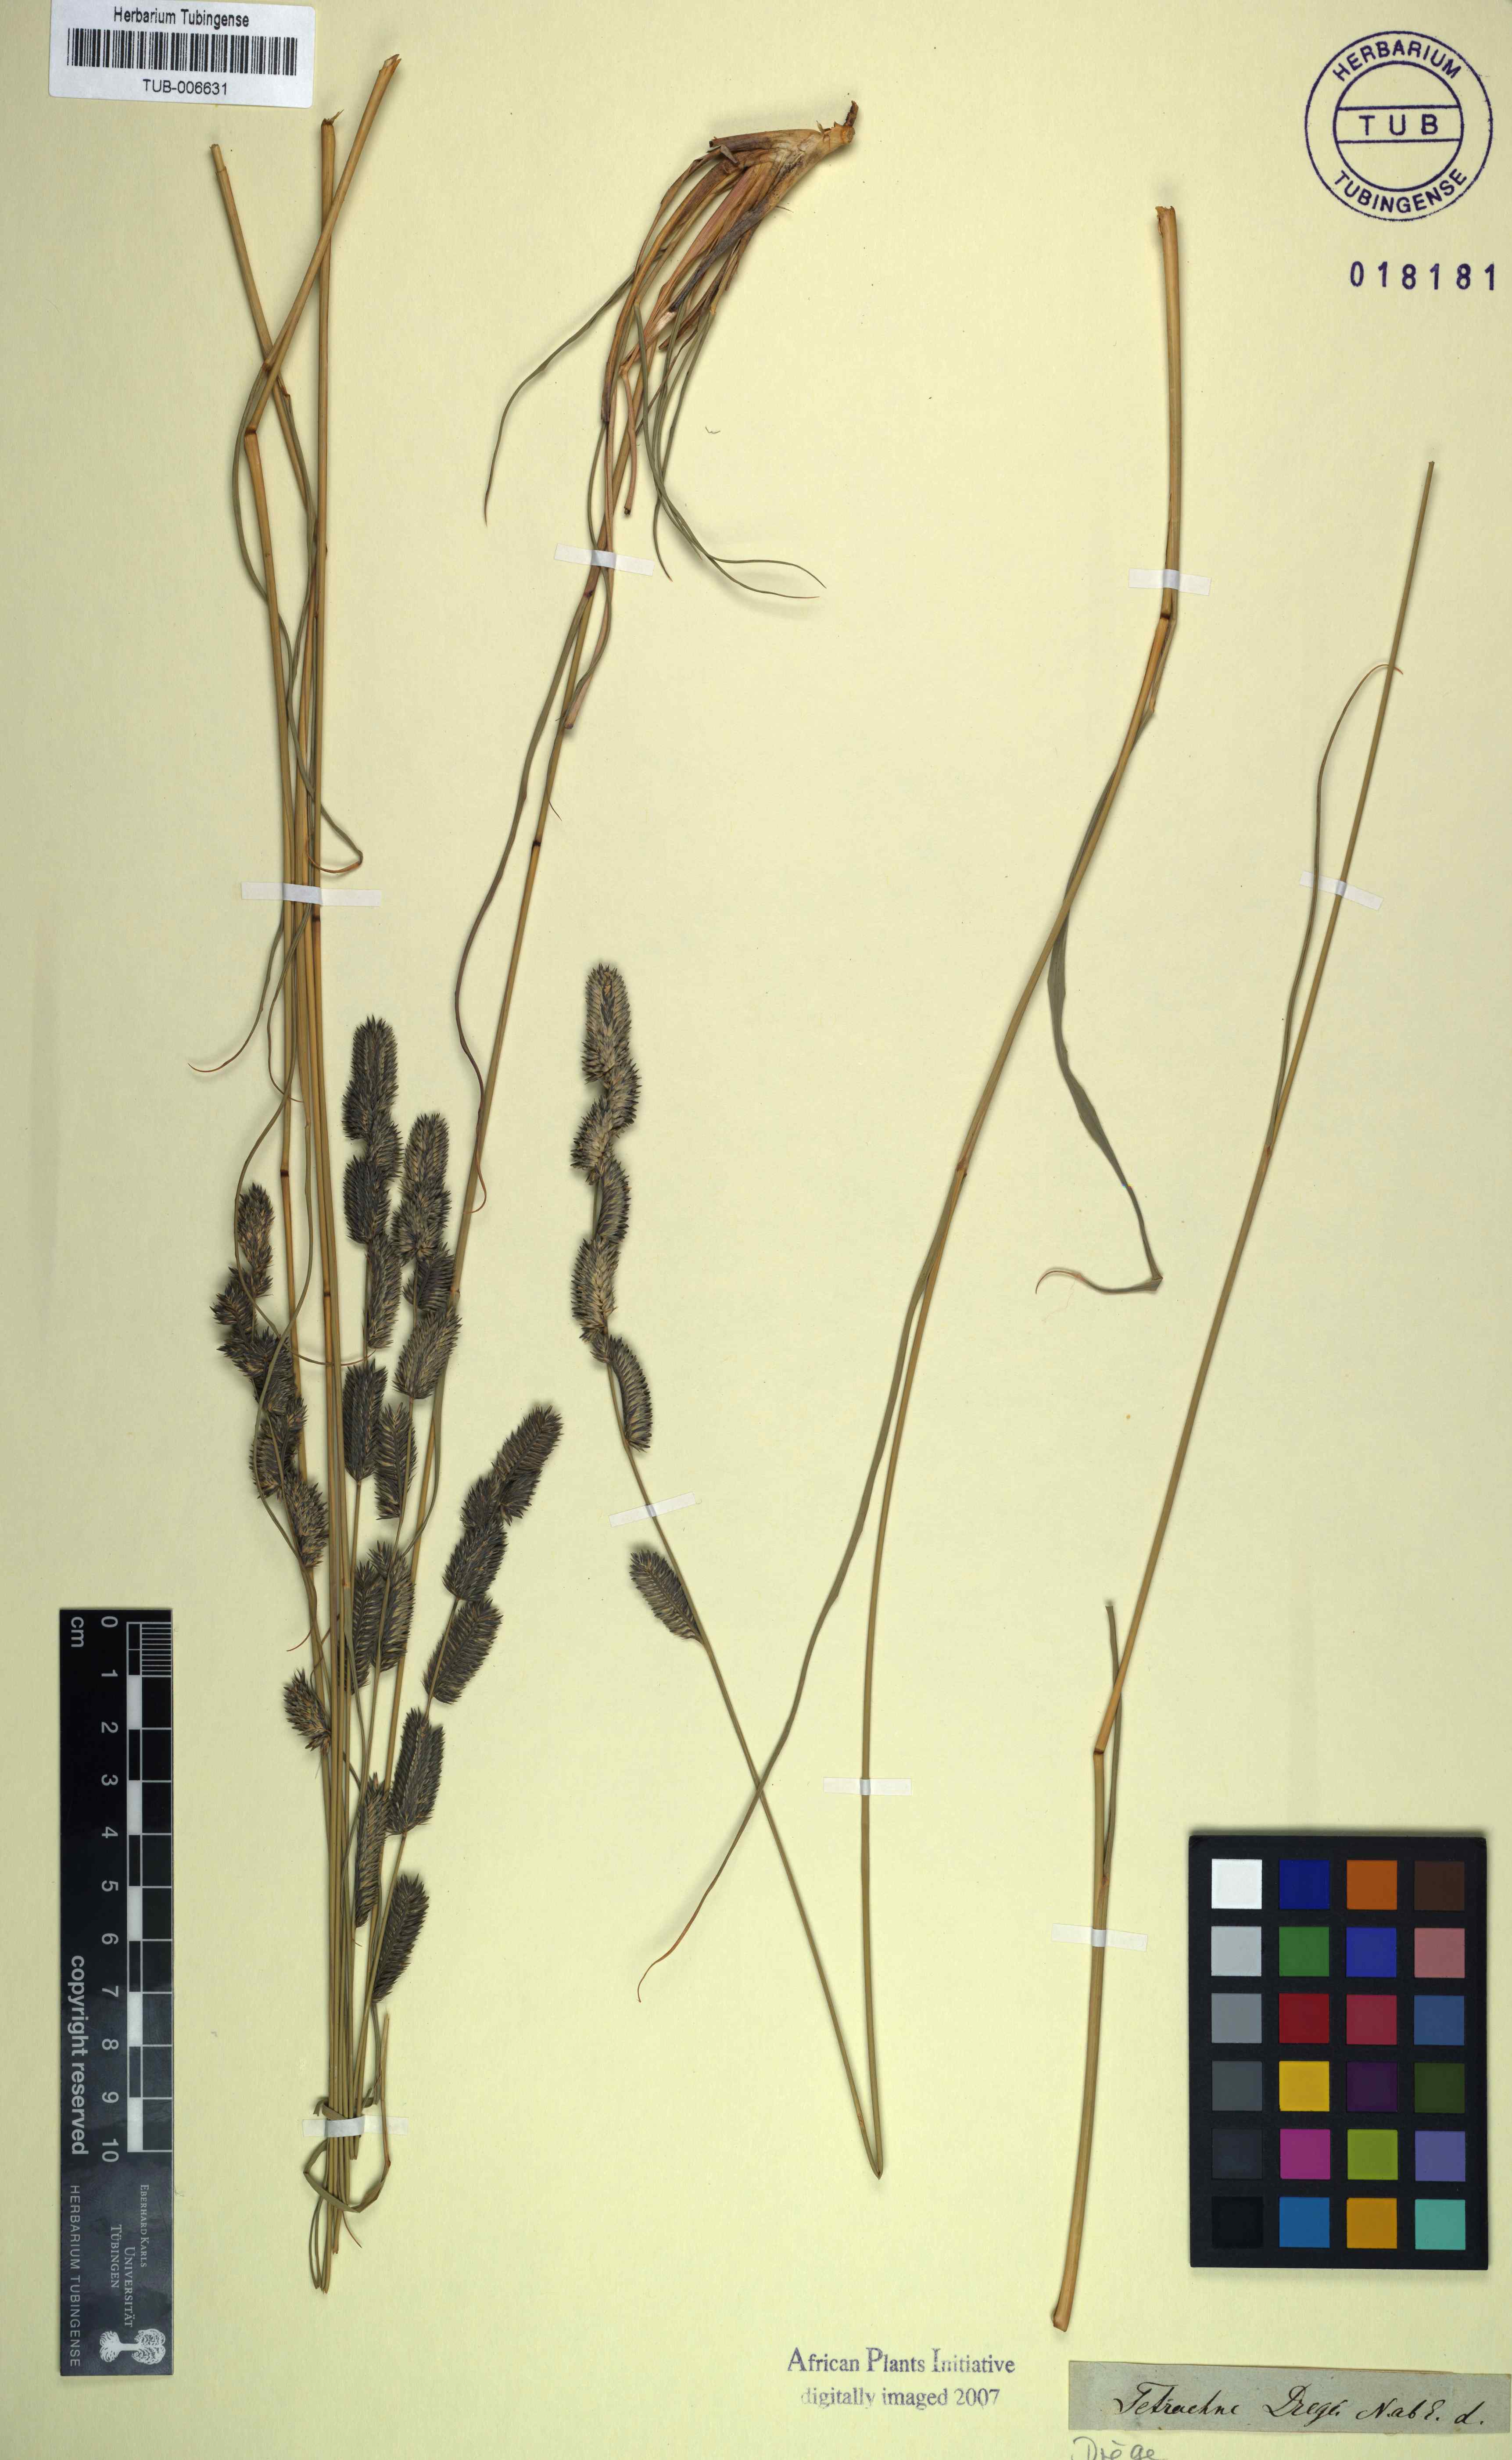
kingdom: Plantae
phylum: Tracheophyta
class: Liliopsida
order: Poales
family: Poaceae
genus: Tetrachne
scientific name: Tetrachne
